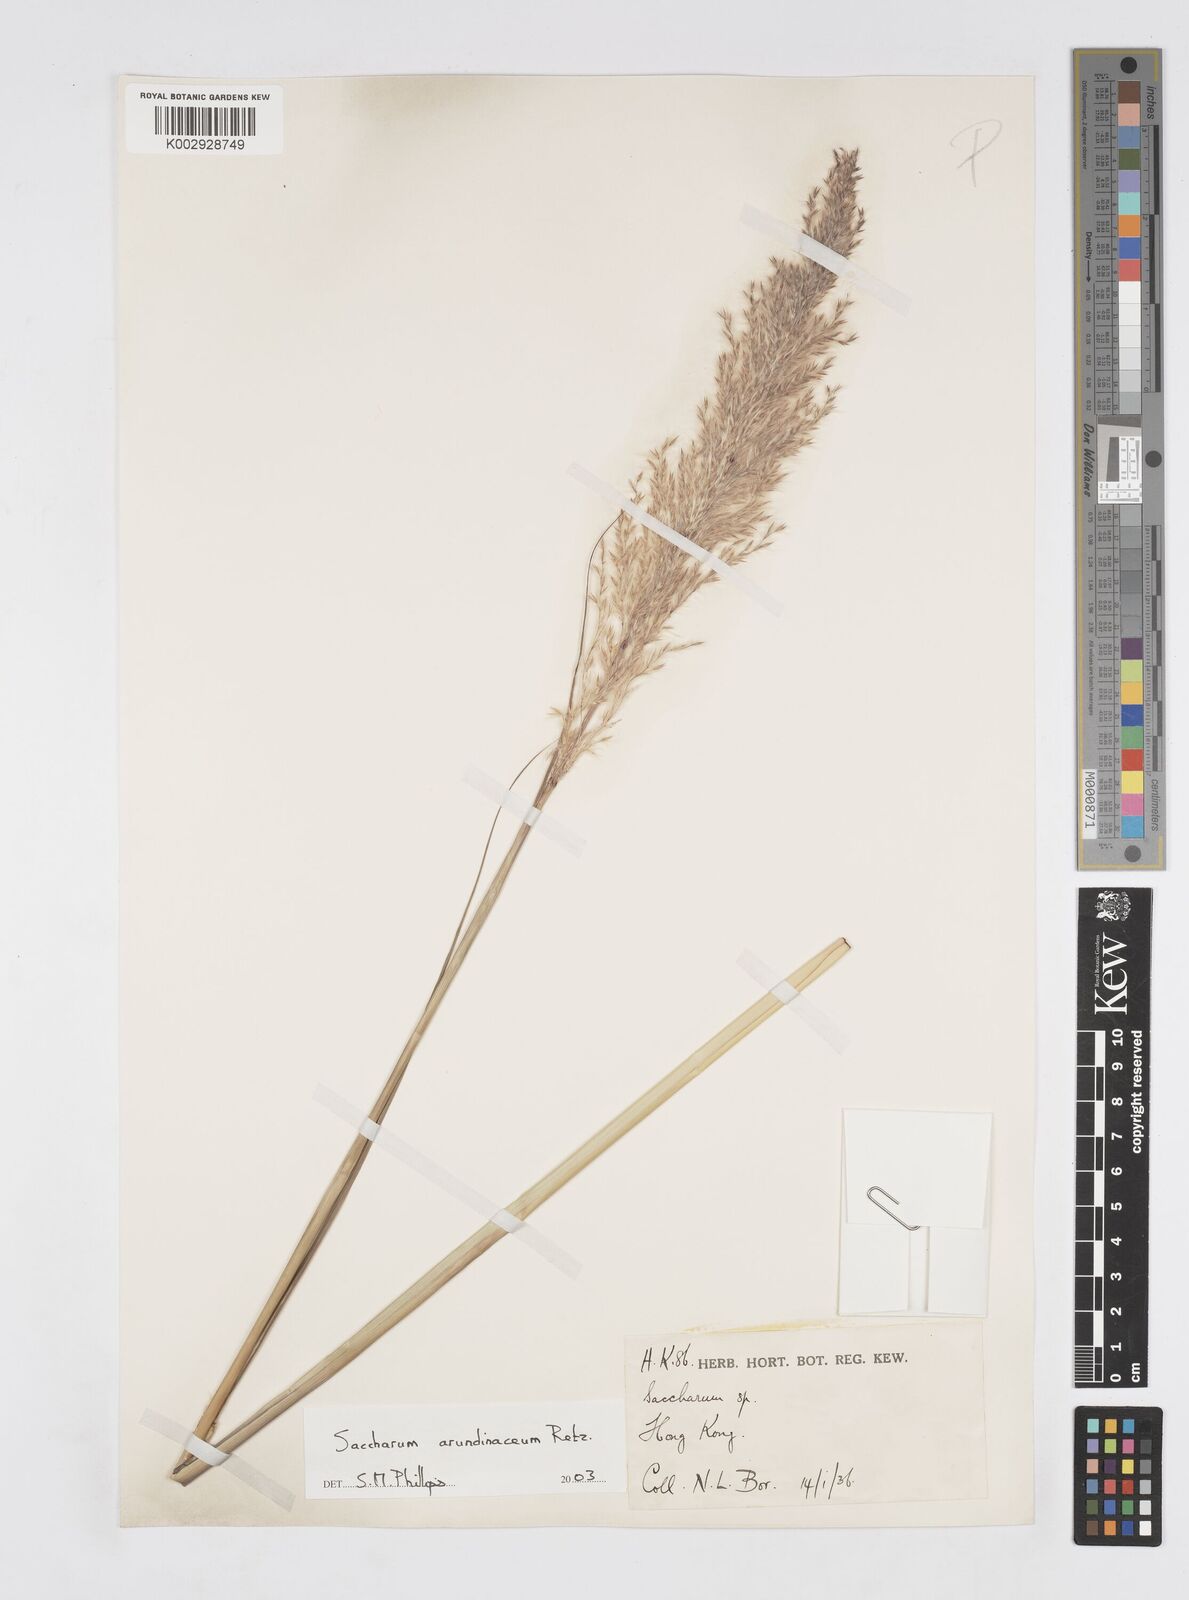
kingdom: Plantae
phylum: Tracheophyta
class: Liliopsida
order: Poales
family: Poaceae
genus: Tripidium
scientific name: Tripidium arundinaceum
